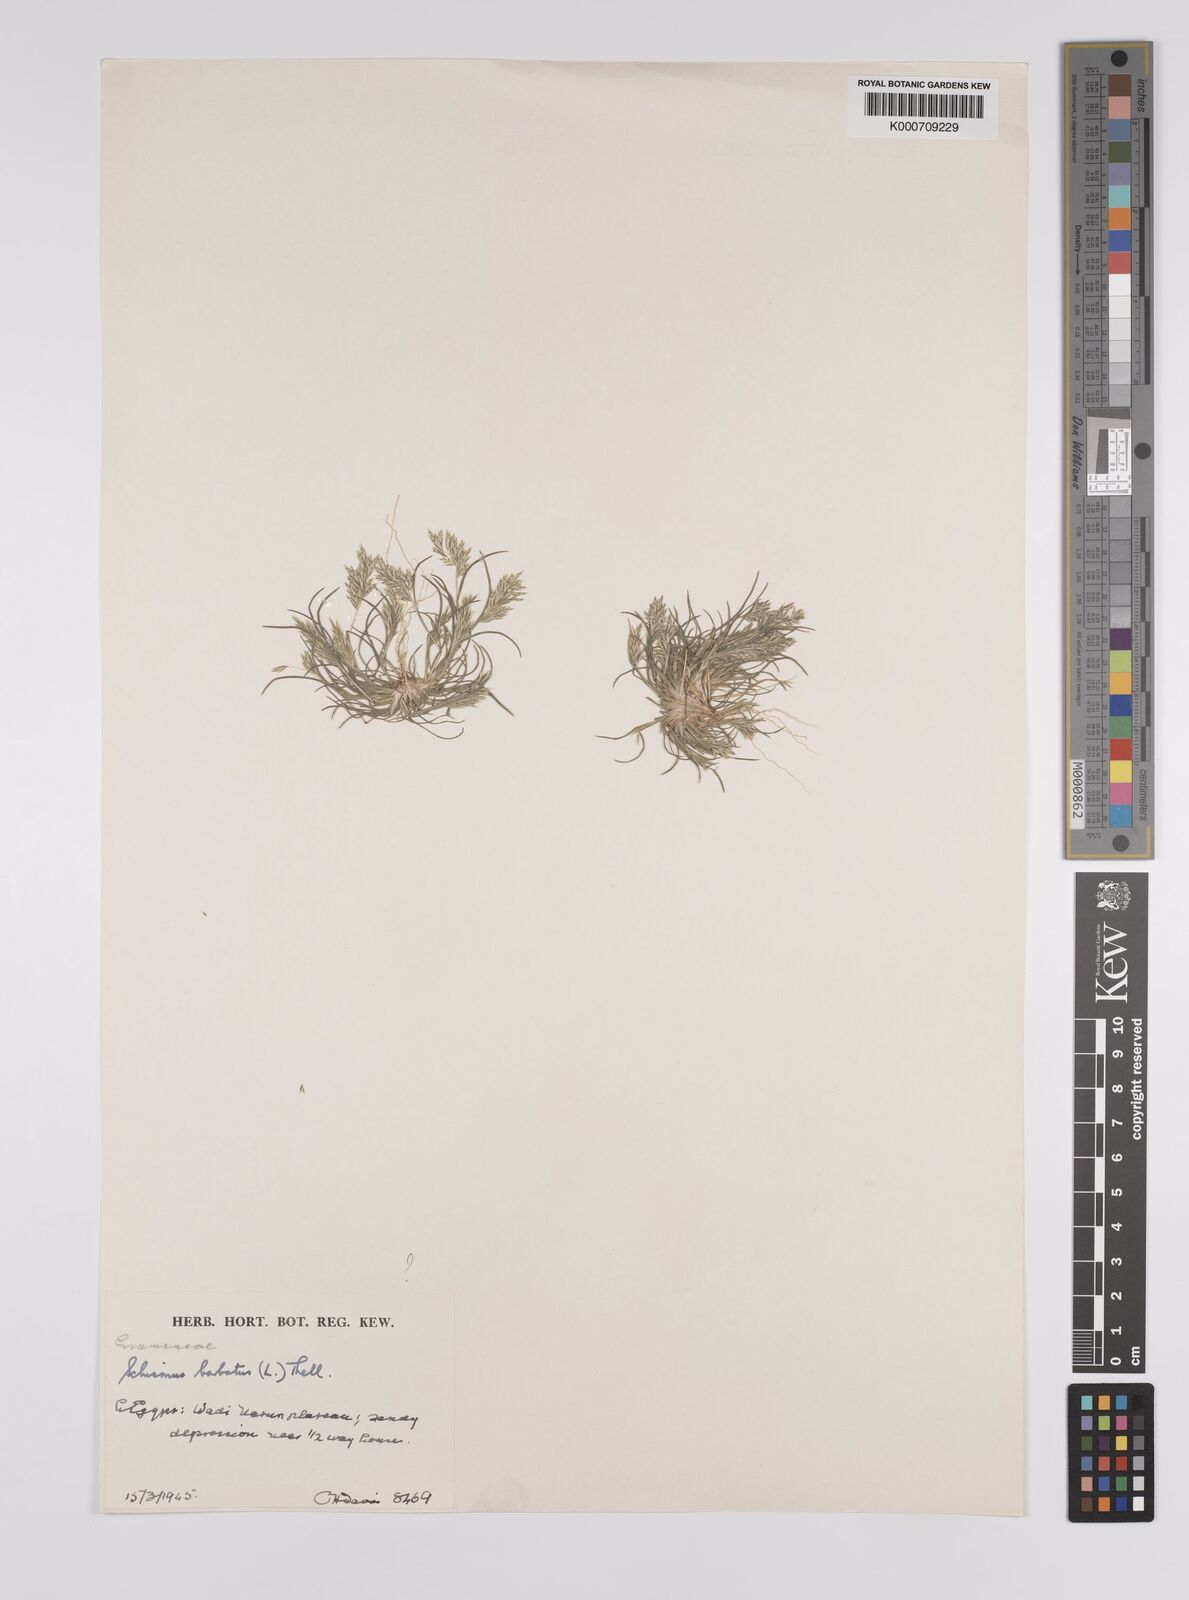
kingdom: Plantae
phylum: Tracheophyta
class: Liliopsida
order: Poales
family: Poaceae
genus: Schismus
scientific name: Schismus barbatus
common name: Kelch-grass
